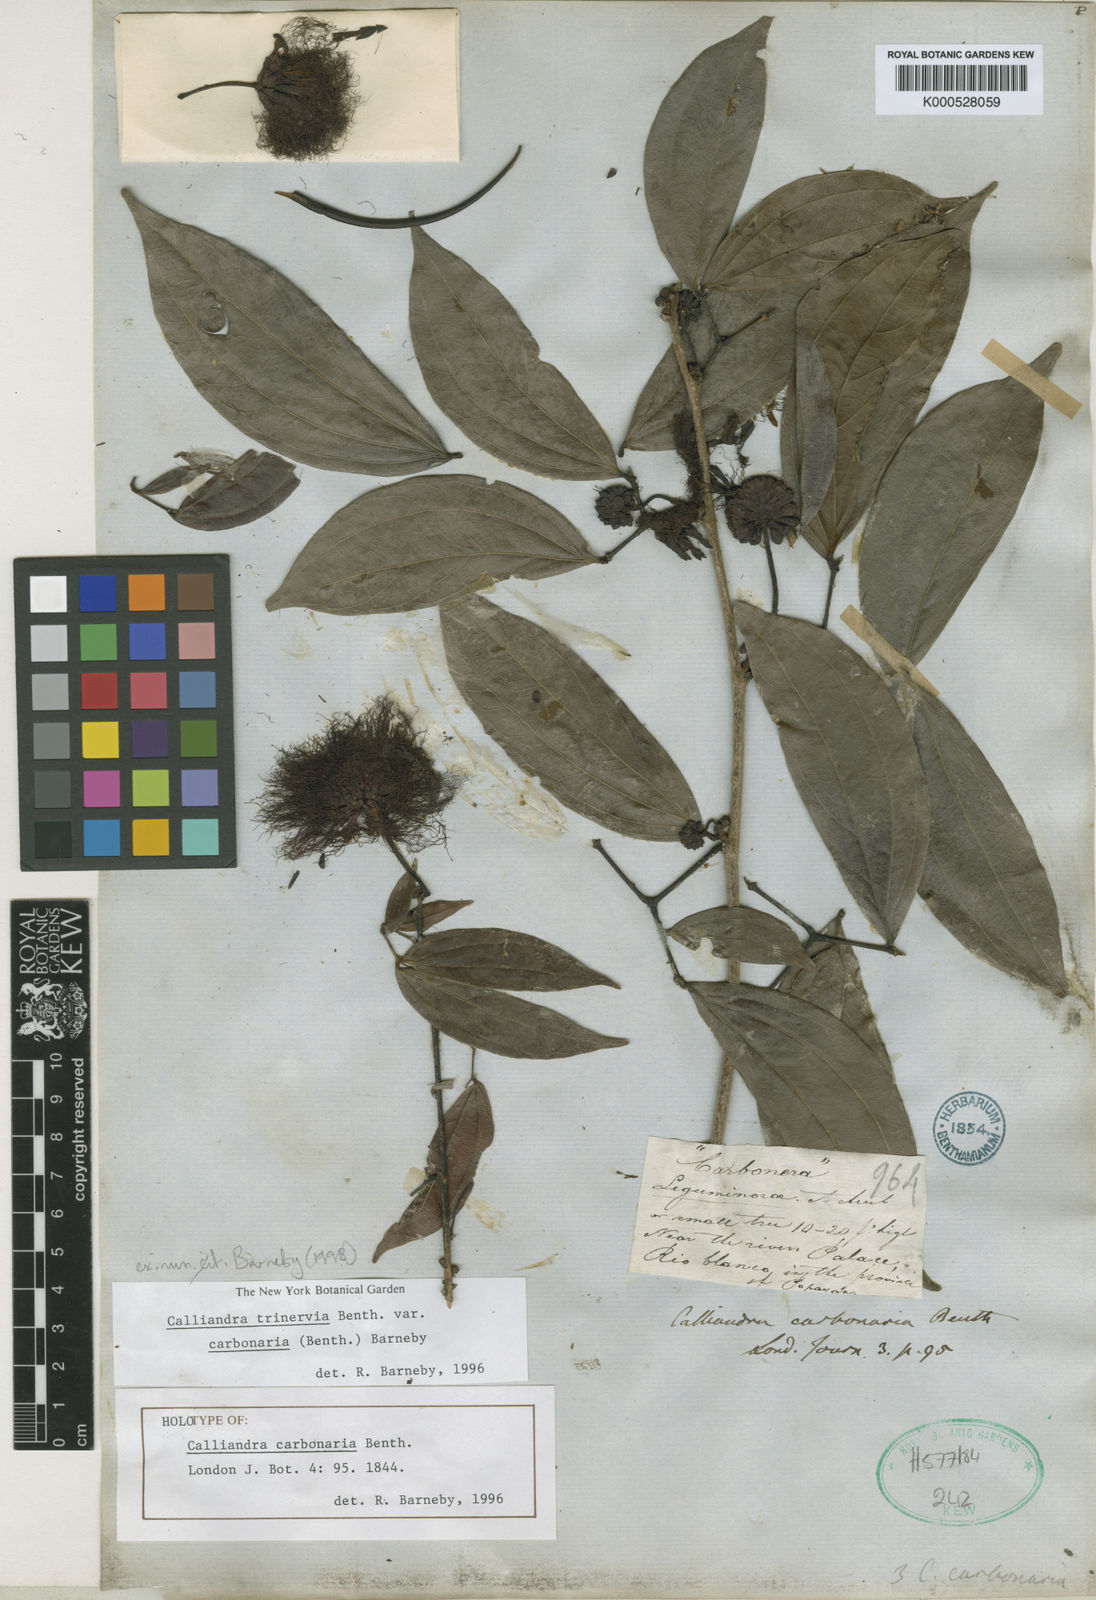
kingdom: Plantae
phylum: Tracheophyta
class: Magnoliopsida
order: Fabales
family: Fabaceae
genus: Calliandra
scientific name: Calliandra trinervia
